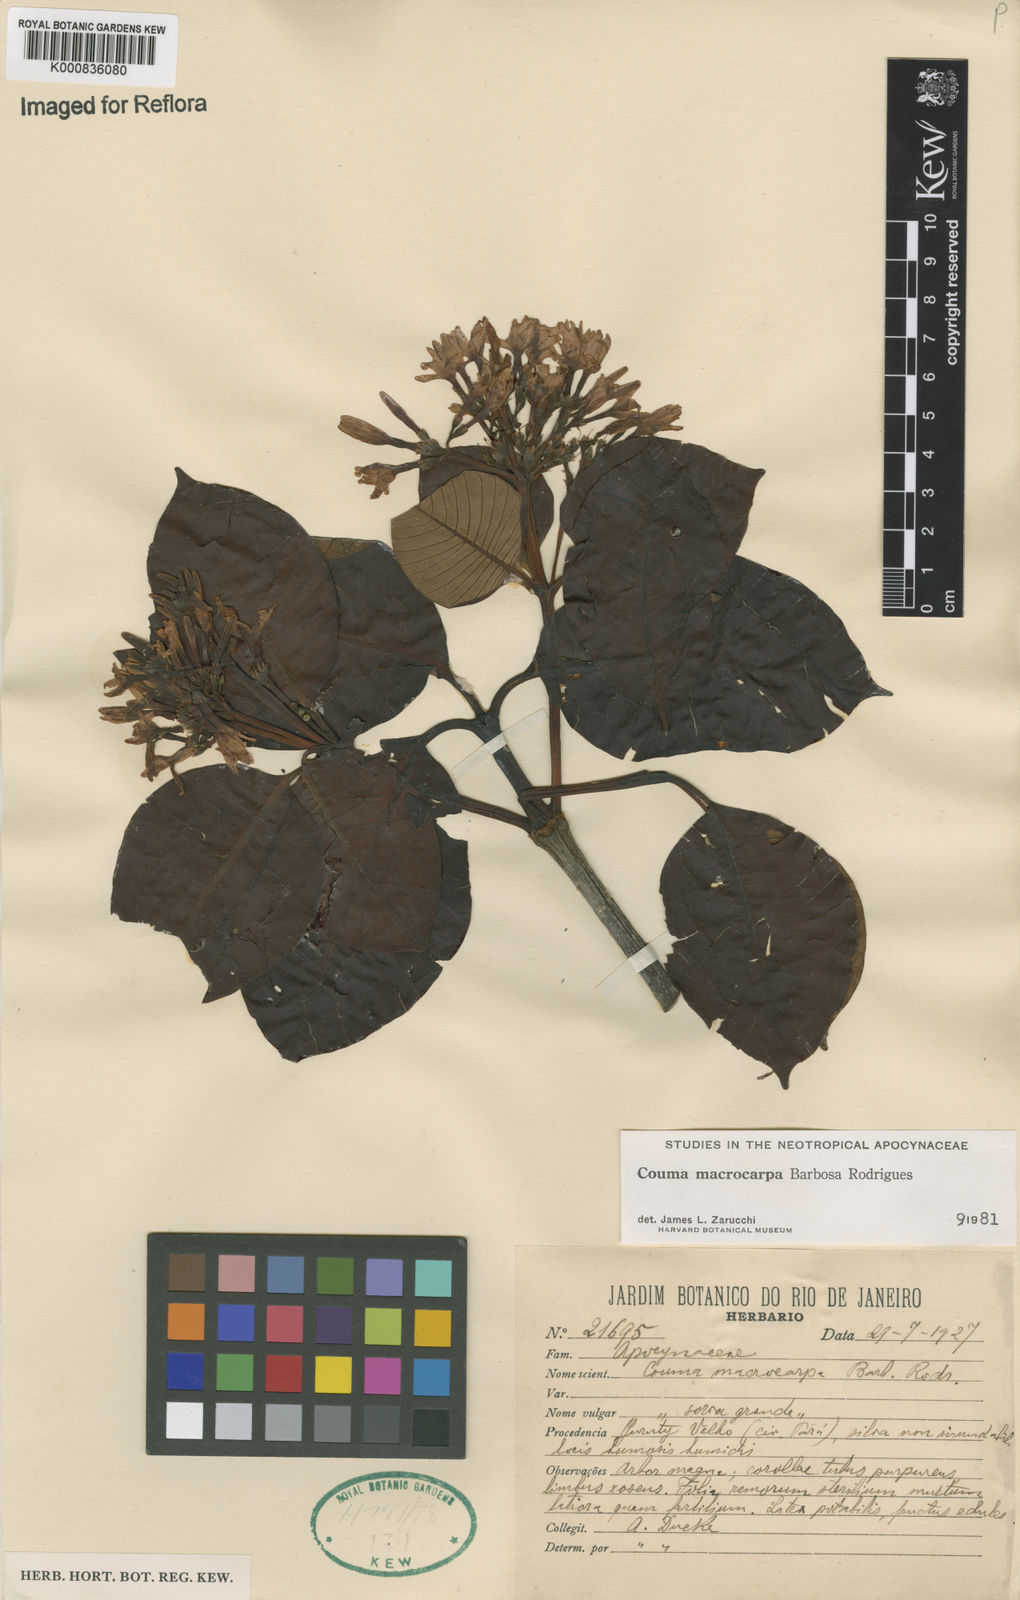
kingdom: Plantae
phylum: Tracheophyta
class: Magnoliopsida
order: Gentianales
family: Apocynaceae
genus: Couma
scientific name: Couma macrocarpa
